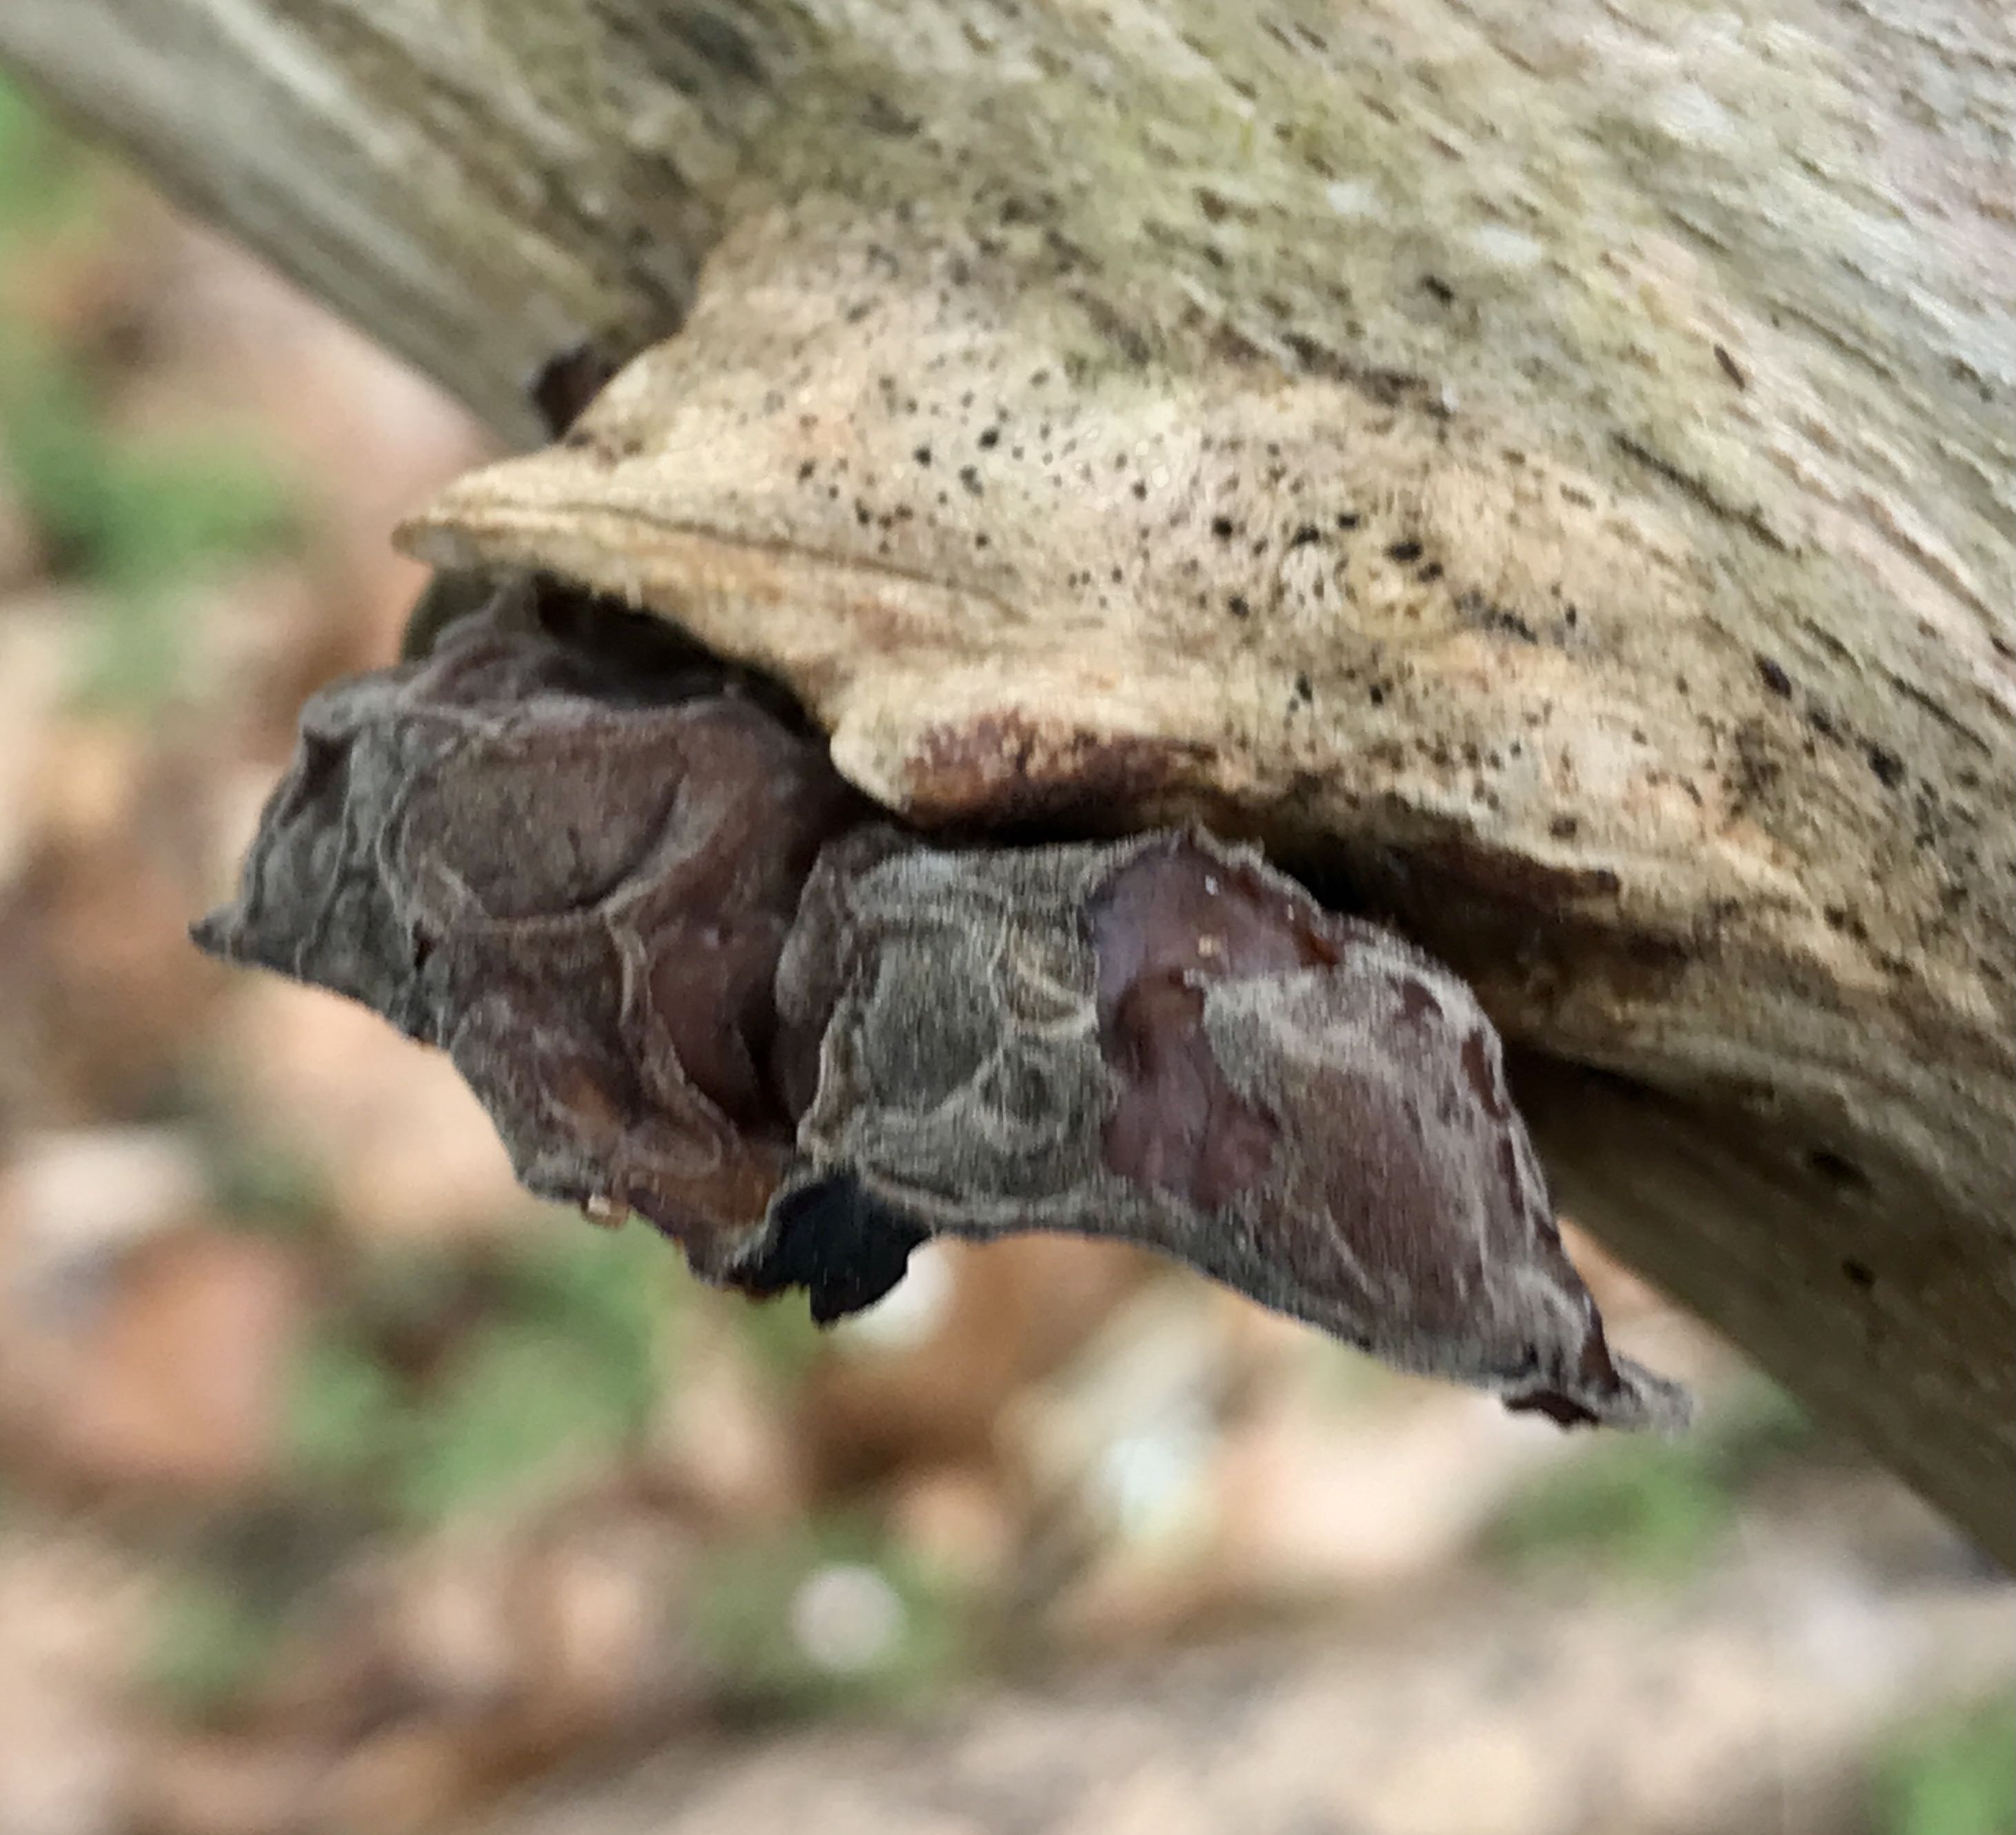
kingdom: Fungi
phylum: Basidiomycota
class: Agaricomycetes
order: Auriculariales
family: Auriculariaceae
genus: Auricularia
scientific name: Auricularia auricula-judae
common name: almindelig judasøre
